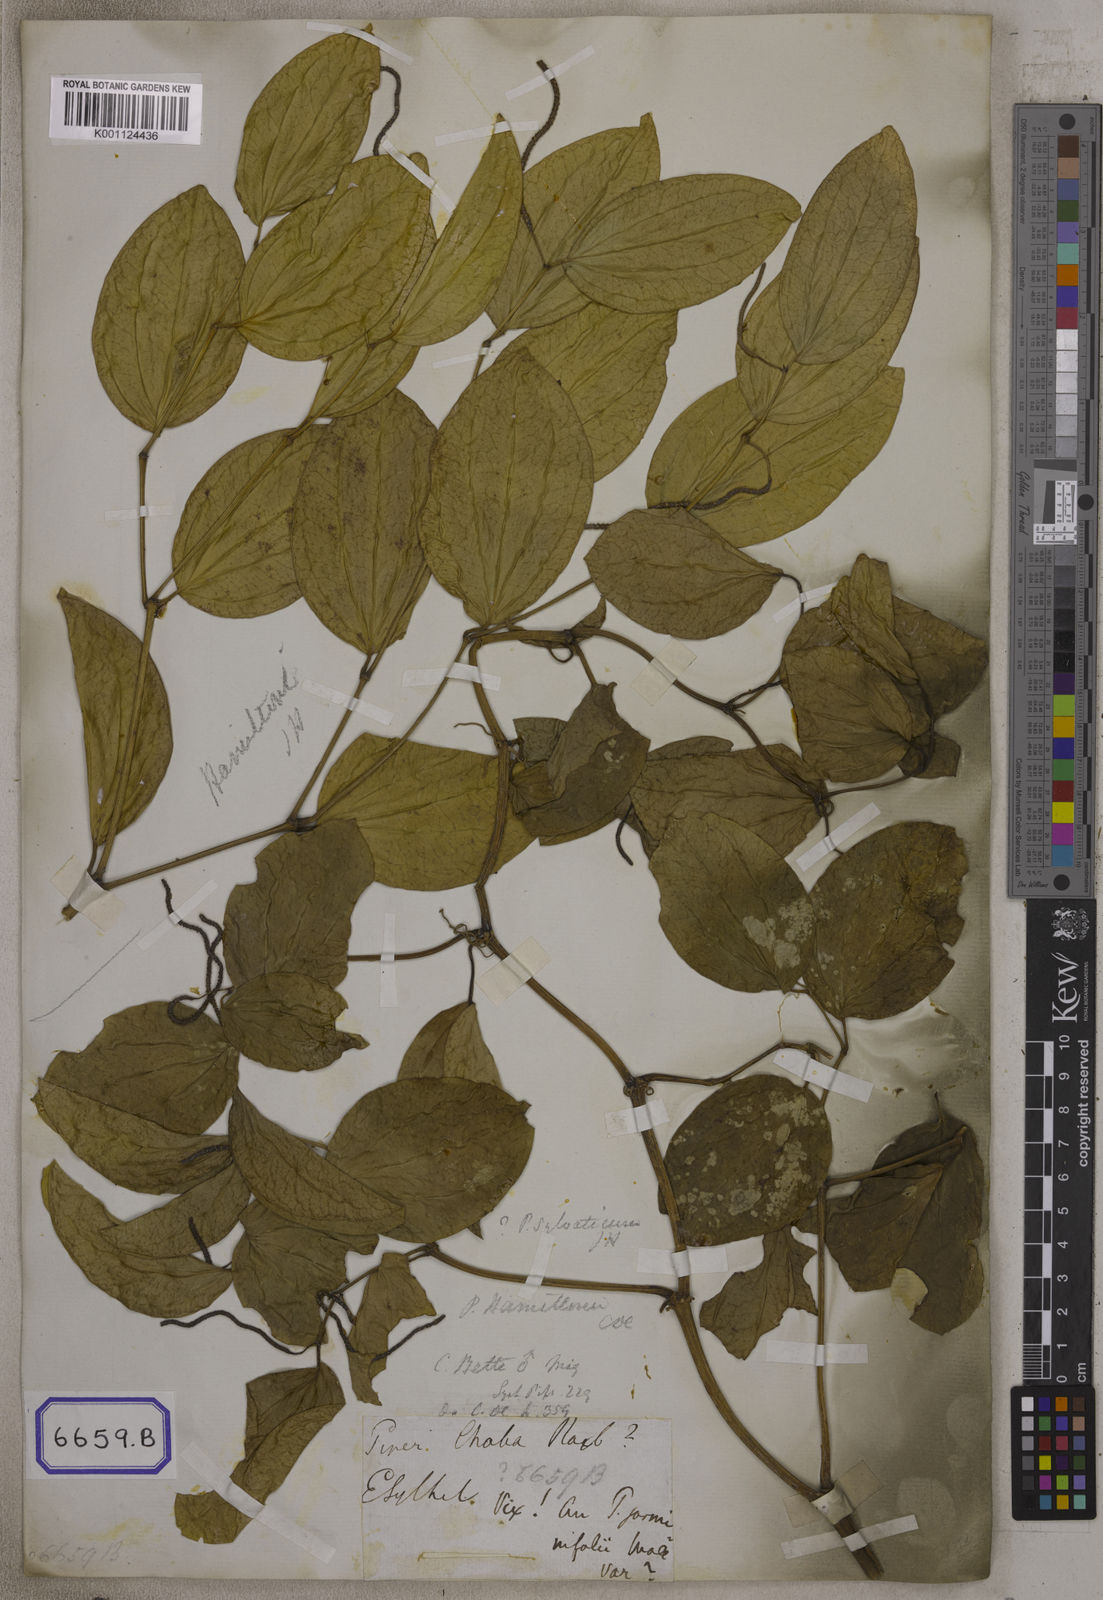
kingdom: Plantae
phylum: Tracheophyta
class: Magnoliopsida
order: Piperales
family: Piperaceae
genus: Piper
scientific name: Piper hamiltonii
